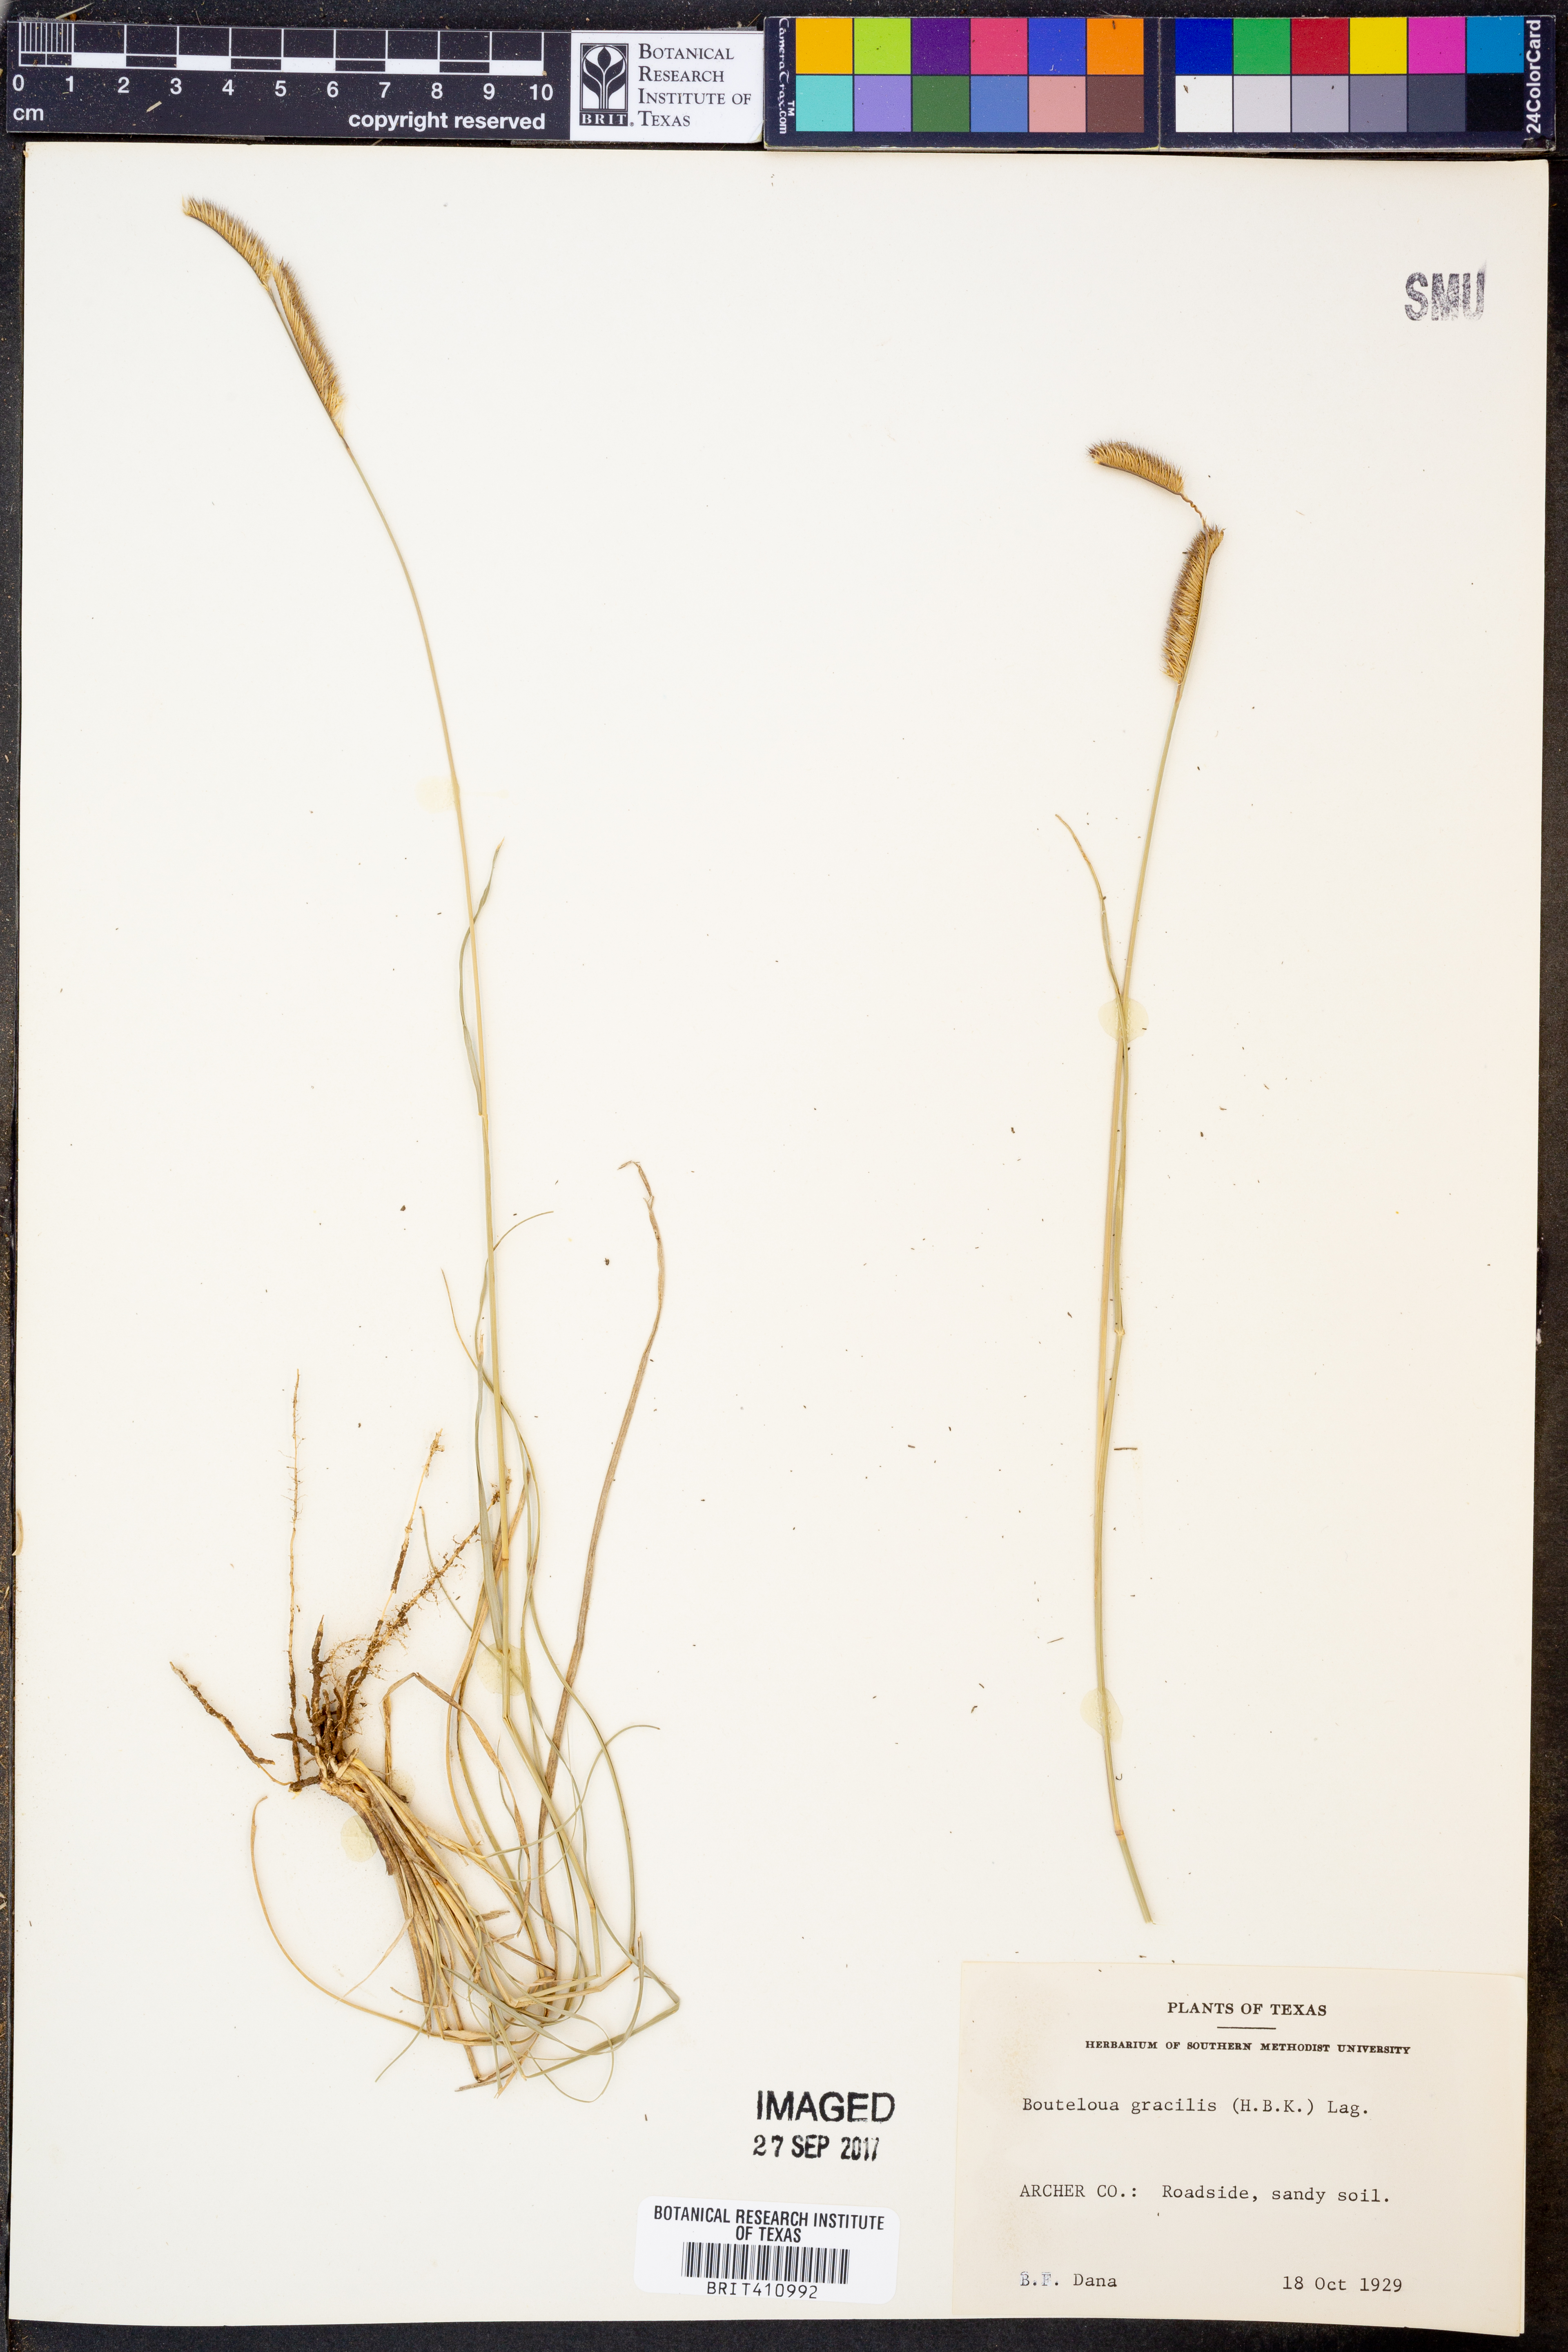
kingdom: Plantae
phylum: Tracheophyta
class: Liliopsida
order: Poales
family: Poaceae
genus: Bouteloua
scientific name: Bouteloua gracilis
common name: Blue grama
